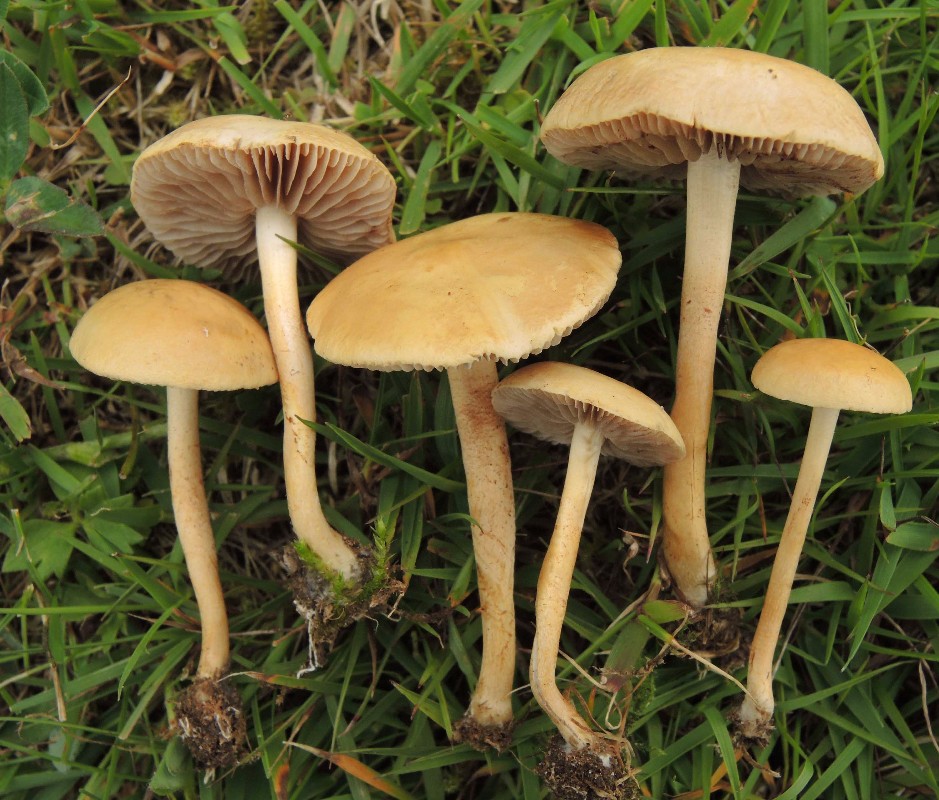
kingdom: Fungi
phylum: Basidiomycota
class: Agaricomycetes
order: Agaricales
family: Strophariaceae
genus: Agrocybe
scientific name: Agrocybe pediades
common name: almindelig agerhat
